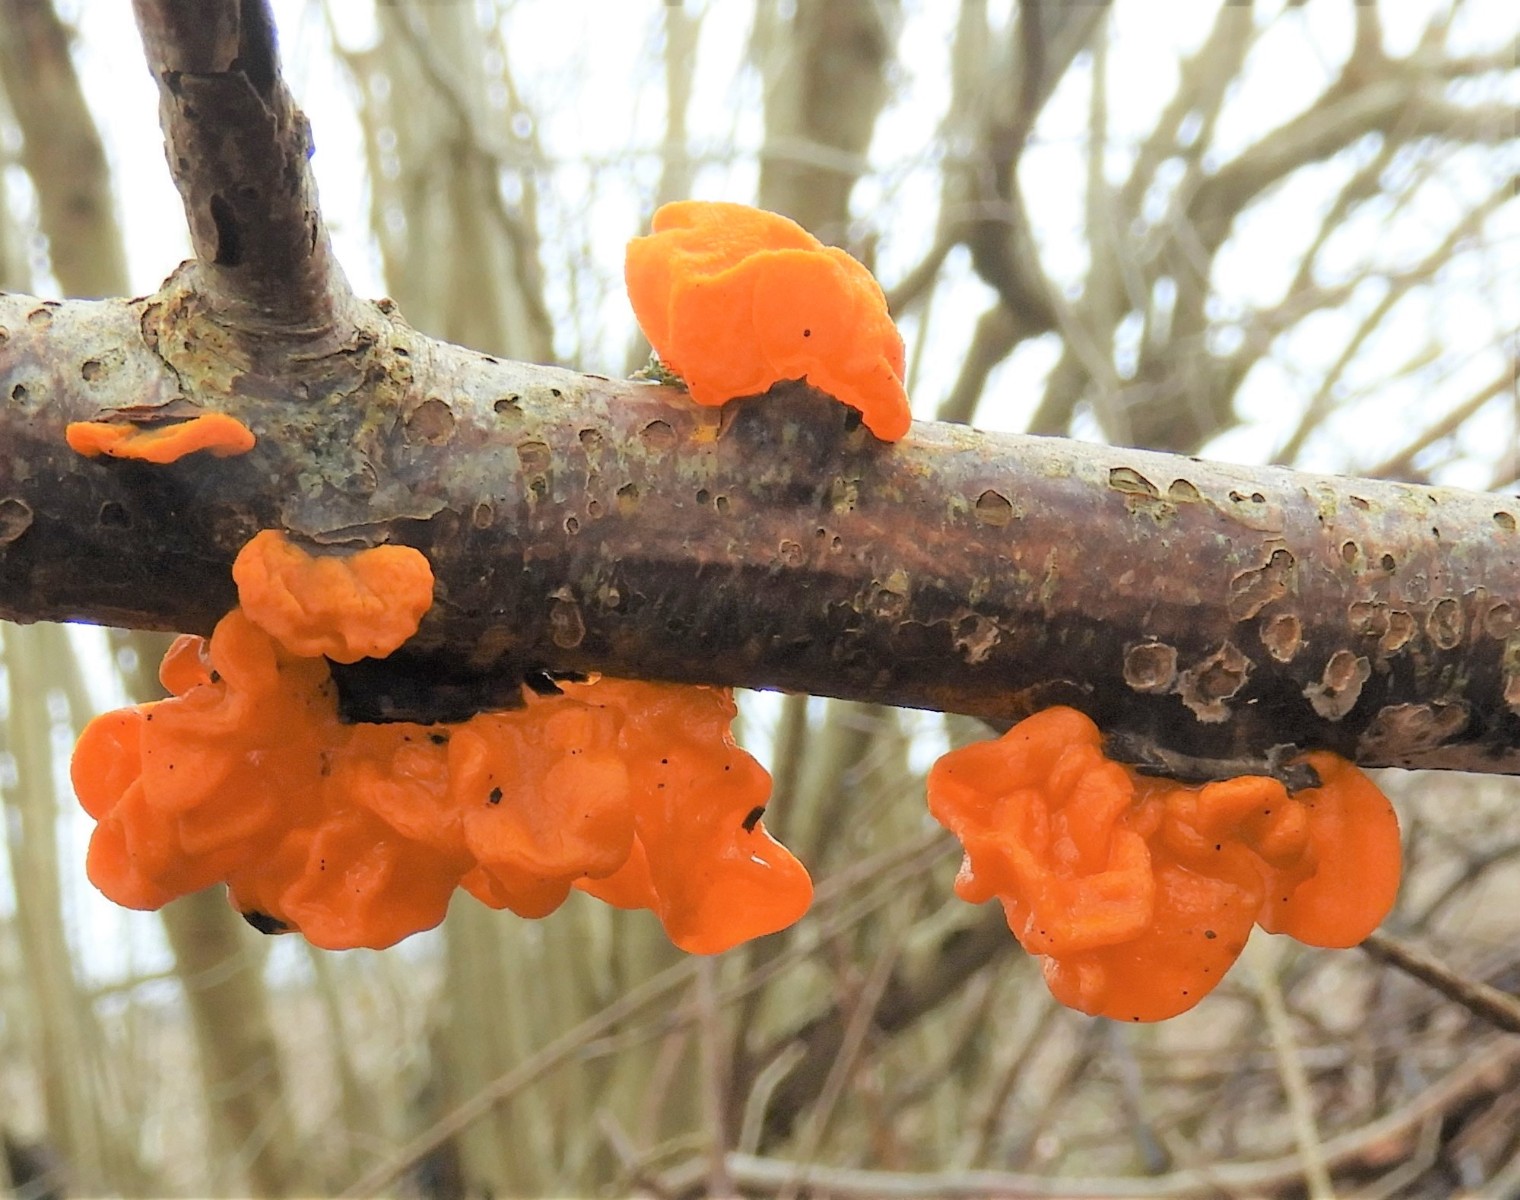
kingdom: Fungi
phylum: Basidiomycota
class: Tremellomycetes
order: Tremellales
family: Tremellaceae
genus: Tremella
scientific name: Tremella mesenterica
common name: gul bævresvamp
